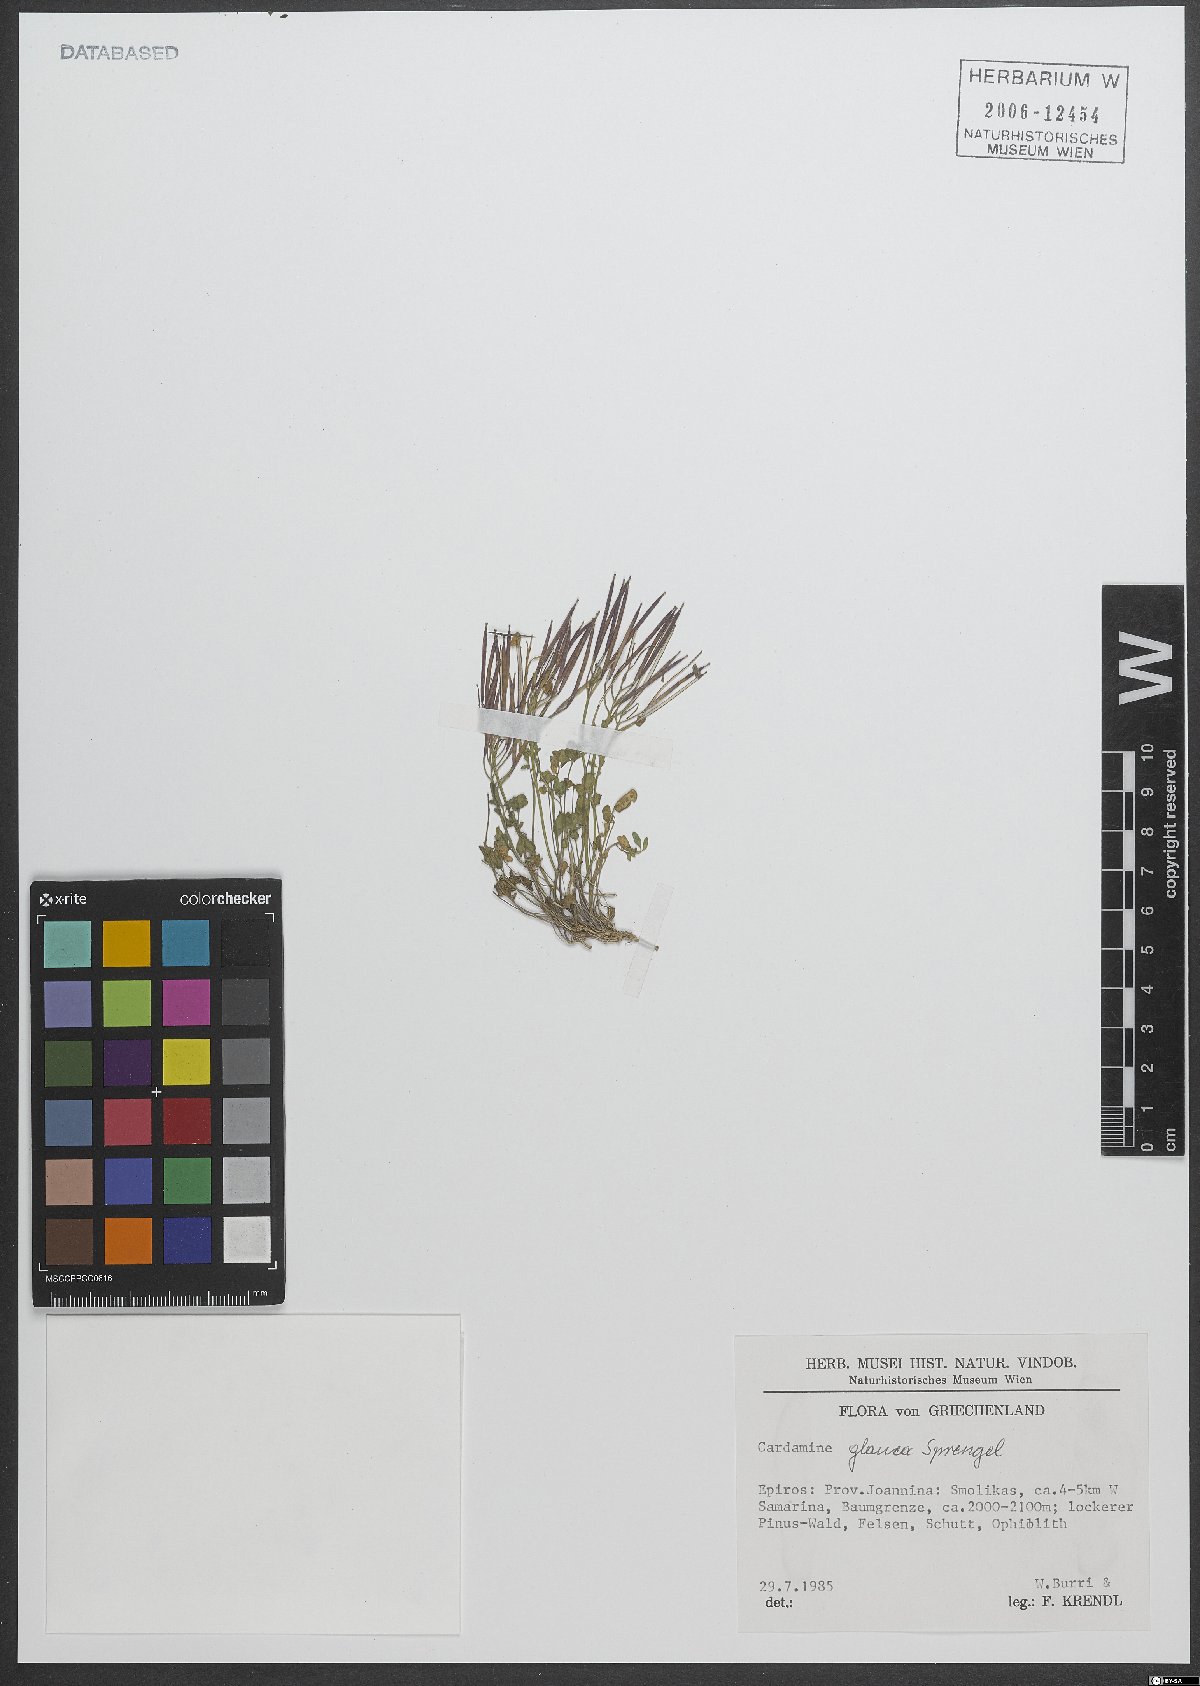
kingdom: Plantae
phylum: Tracheophyta
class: Magnoliopsida
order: Brassicales
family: Brassicaceae
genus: Cardamine
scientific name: Cardamine glauca
